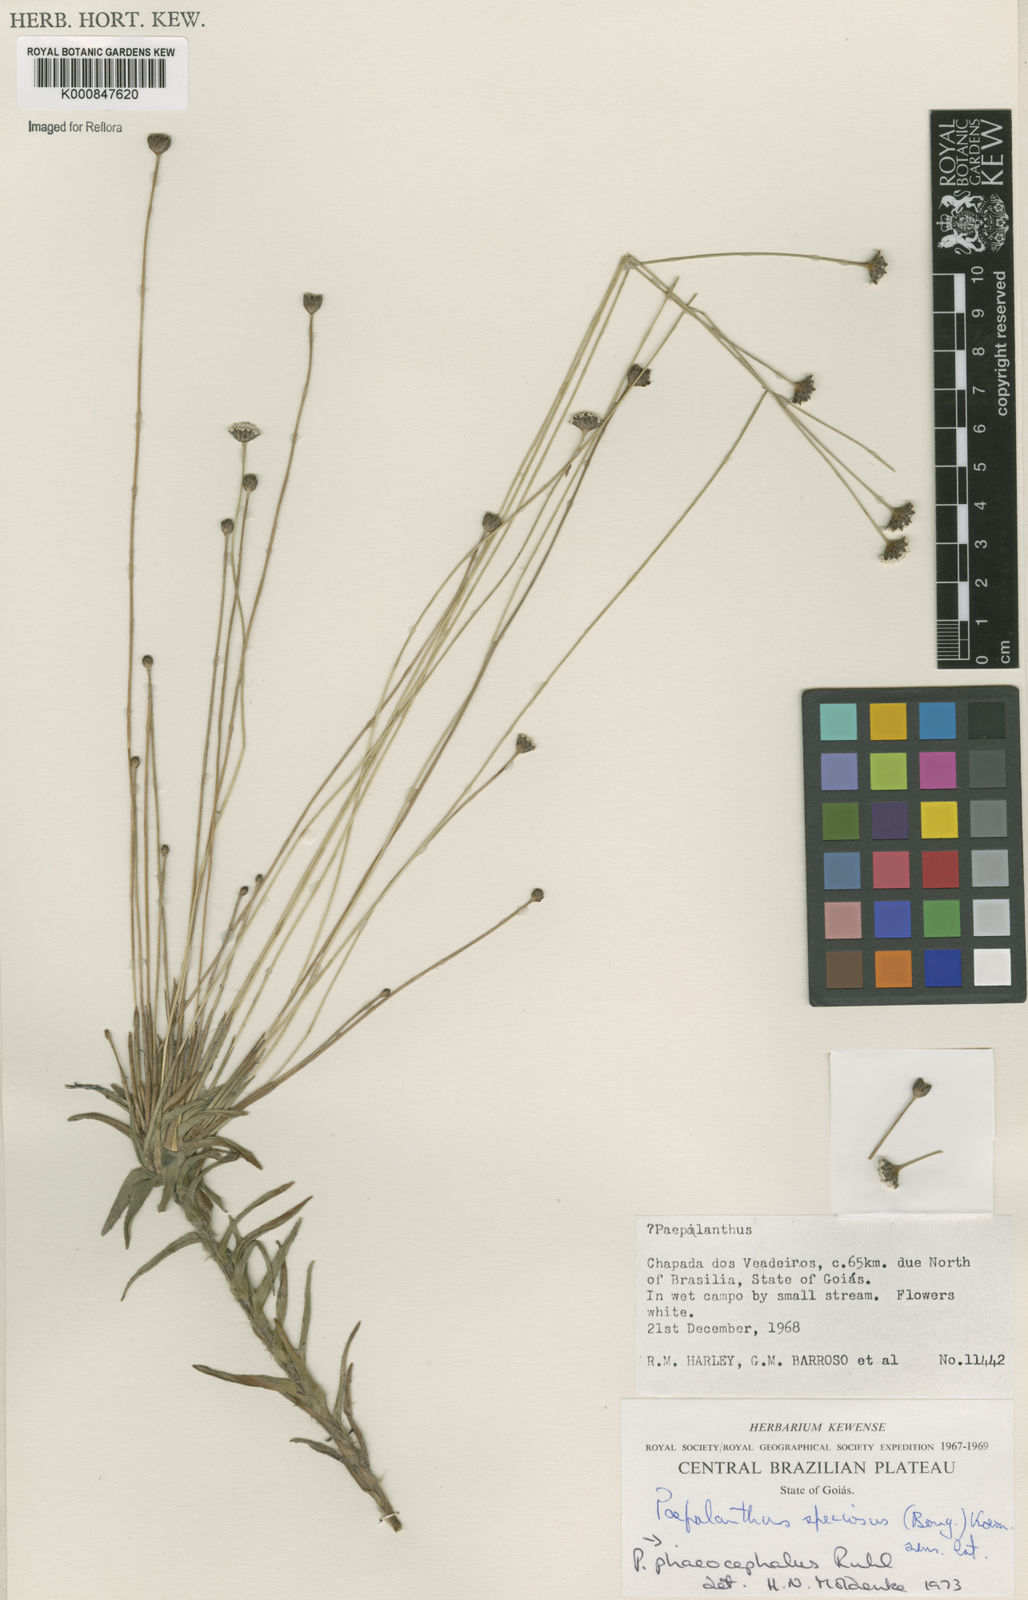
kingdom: Plantae
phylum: Tracheophyta
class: Liliopsida
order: Poales
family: Eriocaulaceae
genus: Paepalanthus
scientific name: Paepalanthus phaeocephalus
